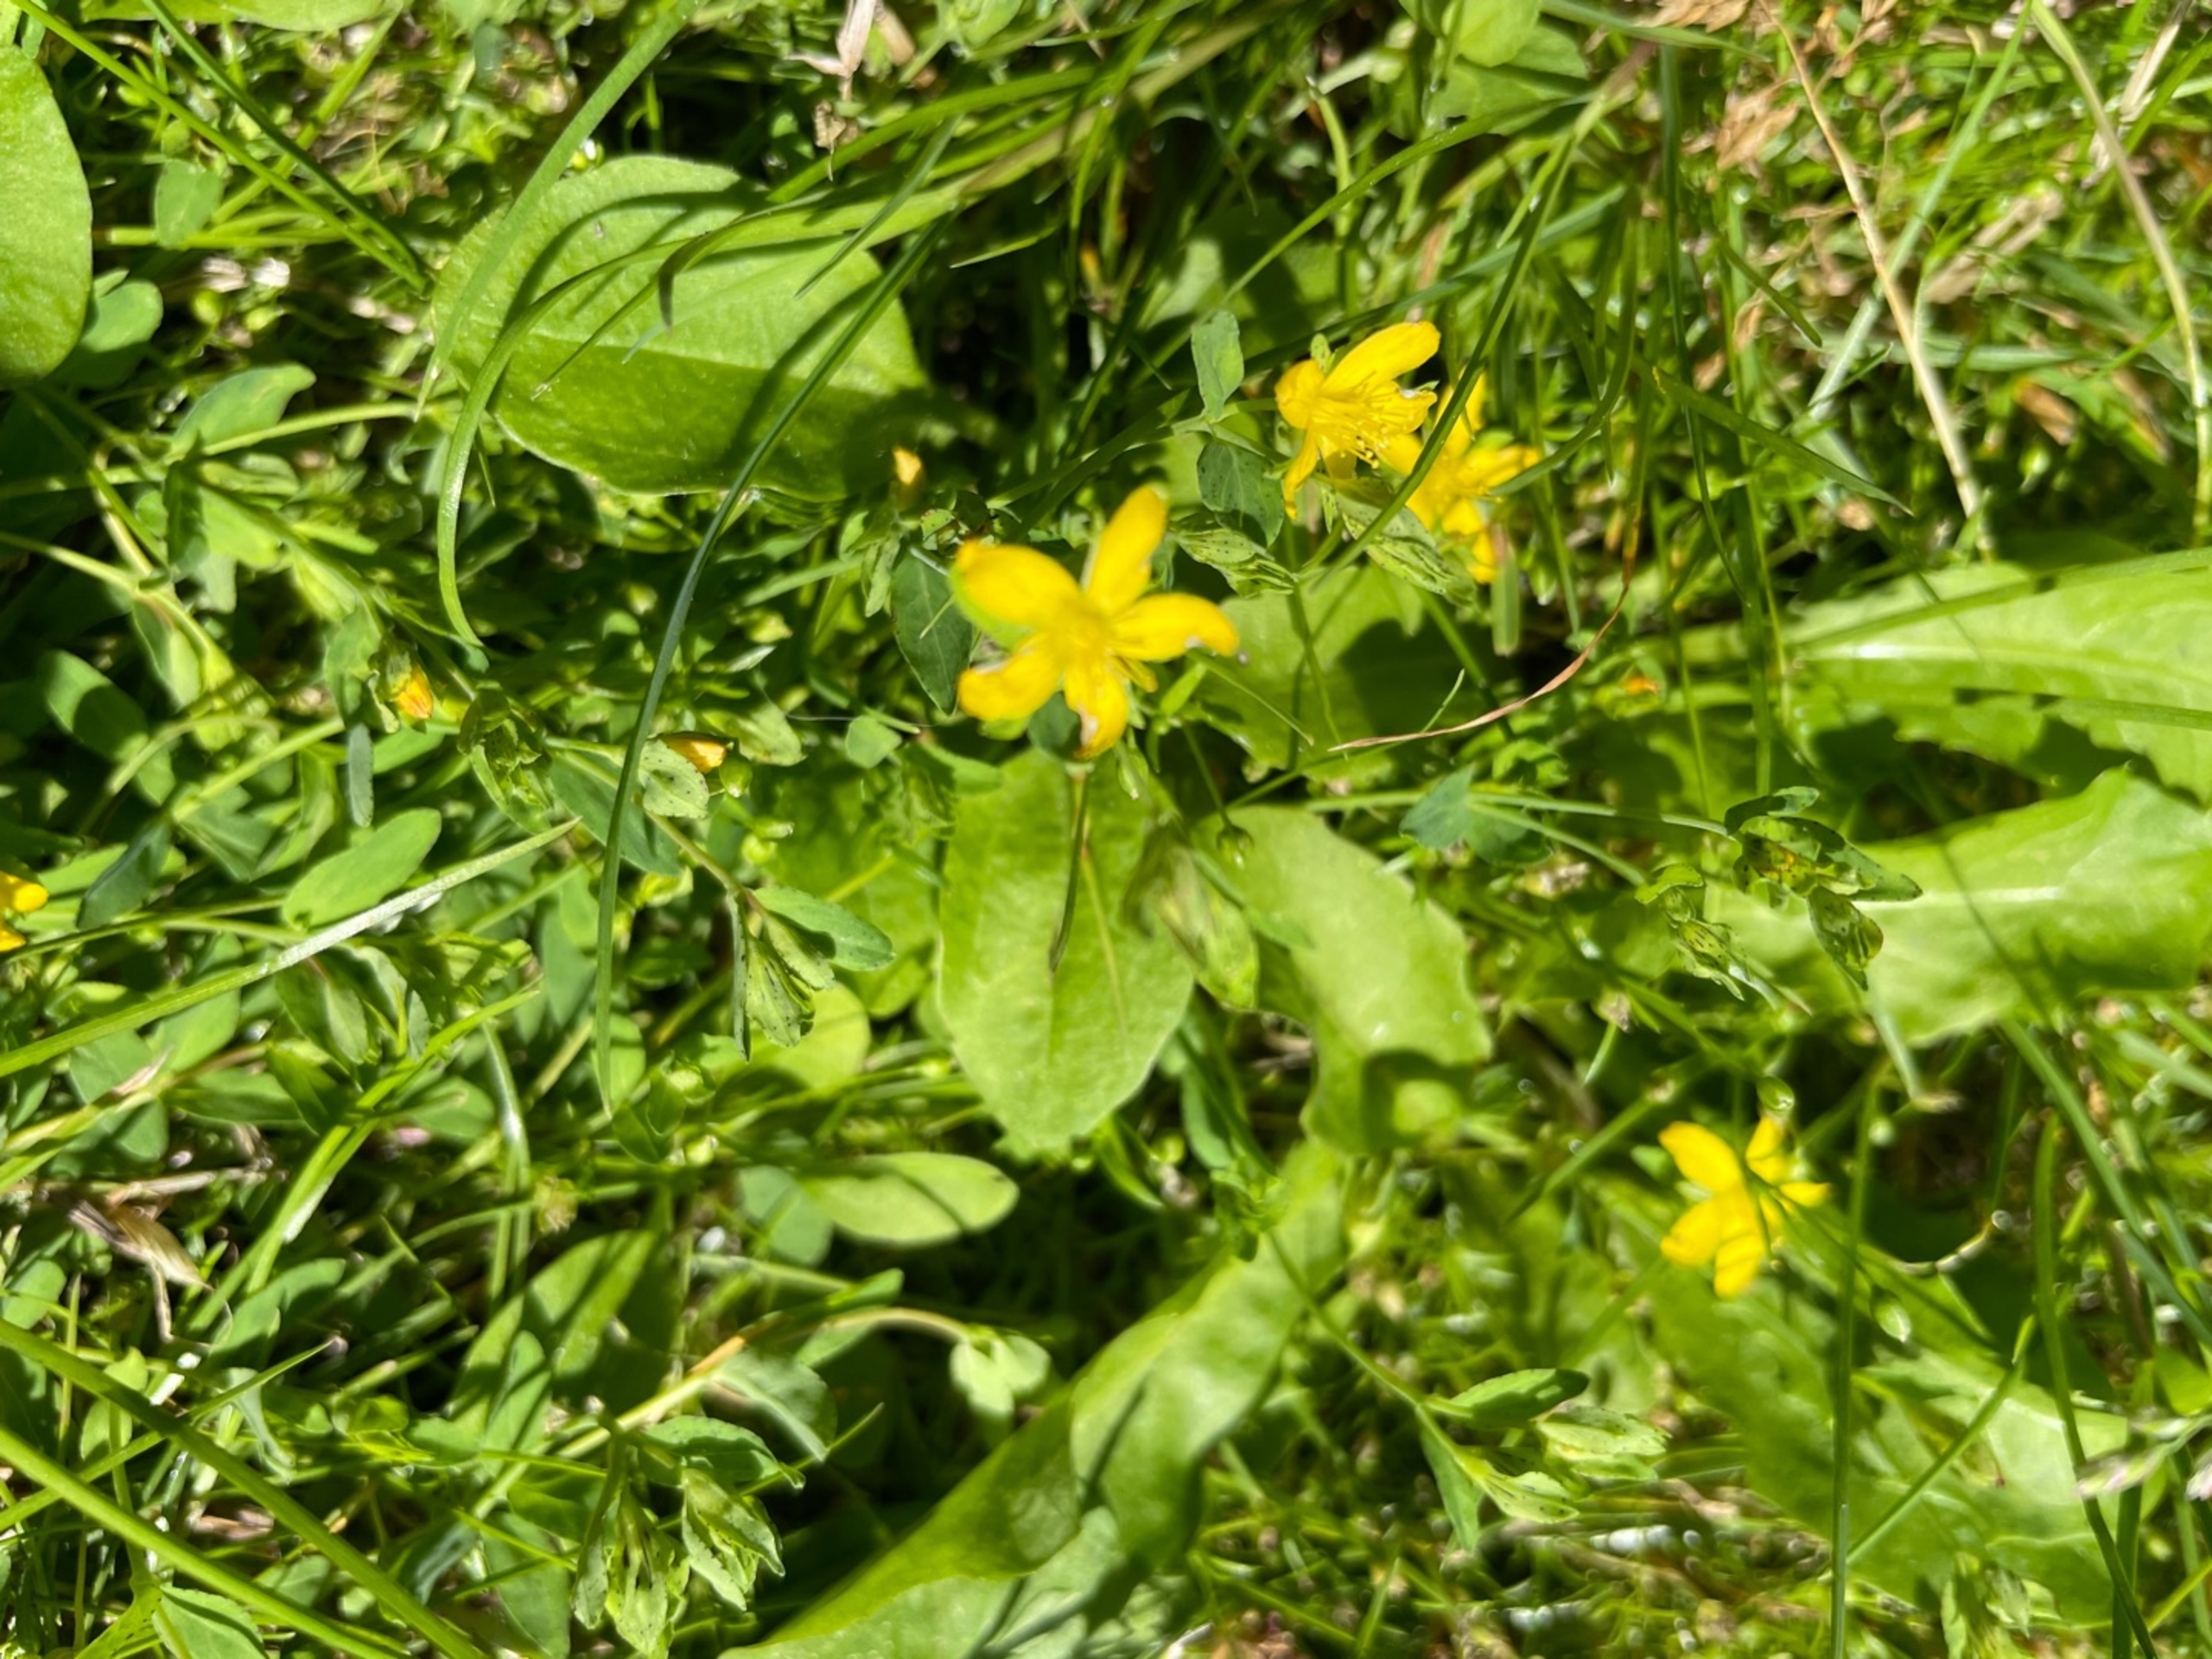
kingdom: Plantae
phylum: Tracheophyta
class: Magnoliopsida
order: Malpighiales
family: Hypericaceae
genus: Hypericum
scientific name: Hypericum humifusum
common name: Dværg-perikon
